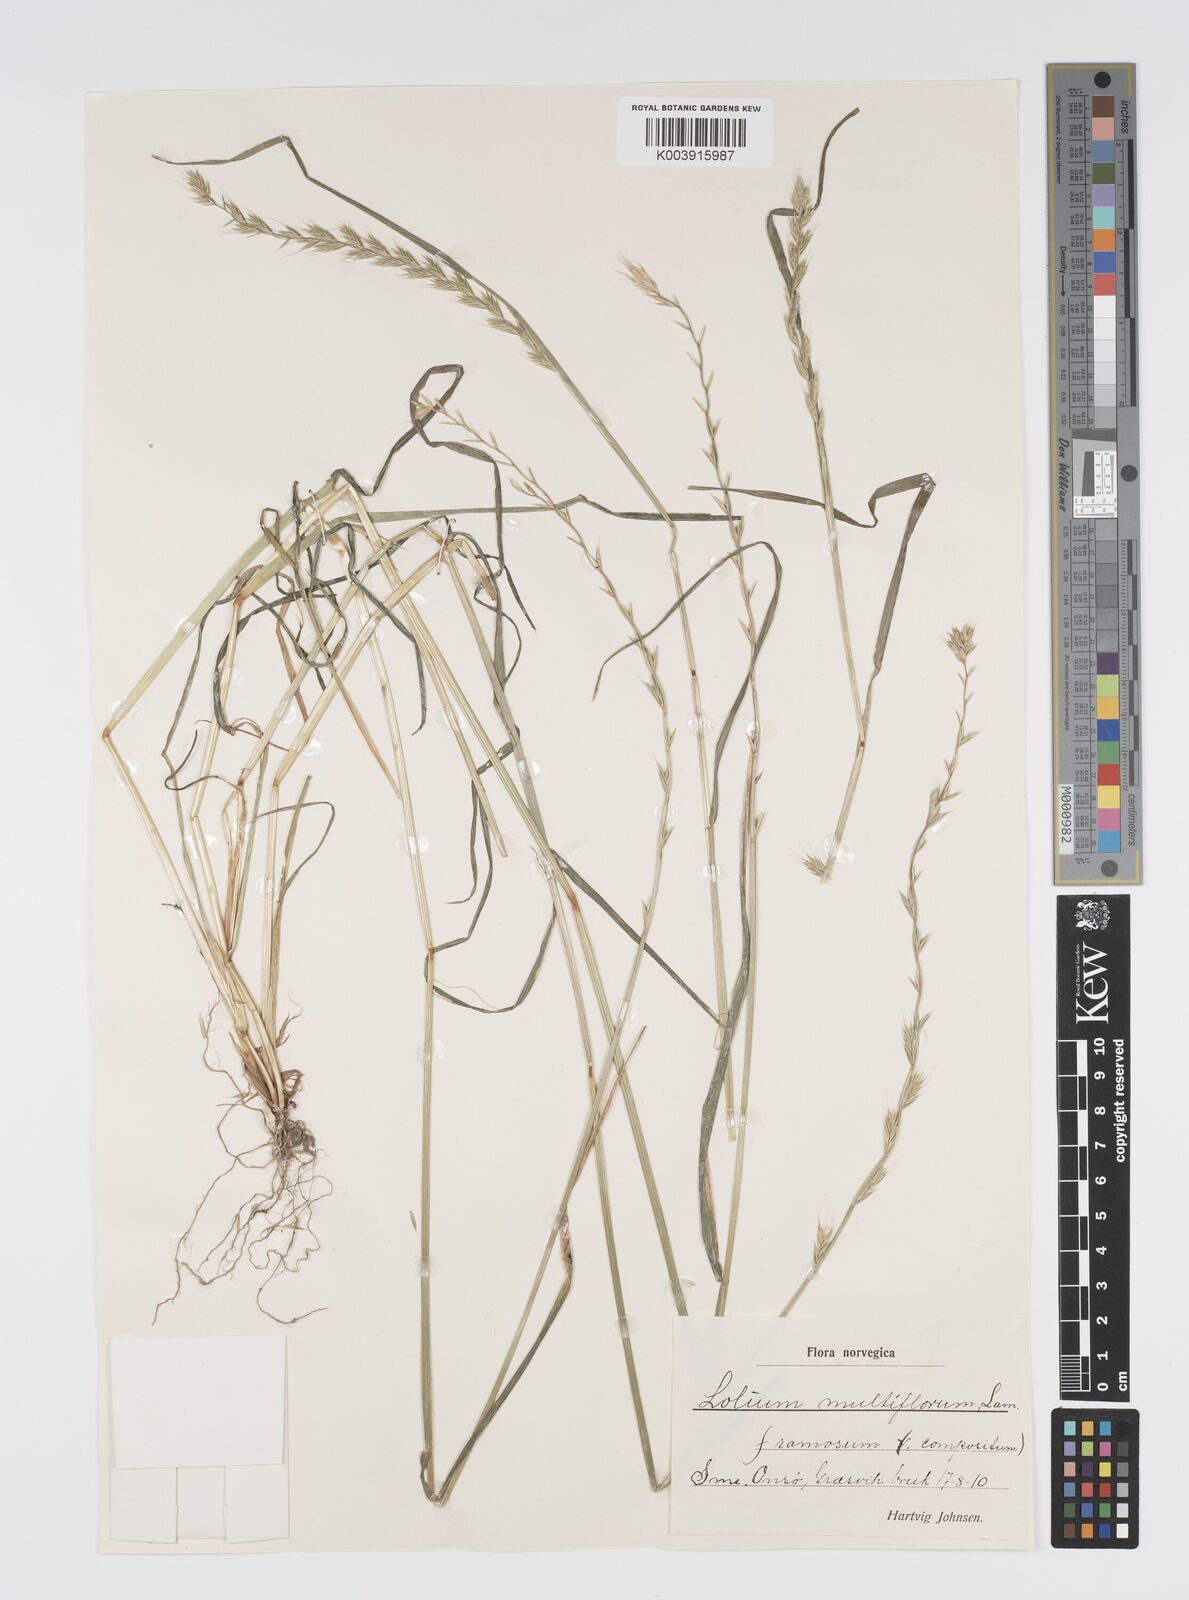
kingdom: Plantae
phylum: Tracheophyta
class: Liliopsida
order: Poales
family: Poaceae
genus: Lolium
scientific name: Lolium multiflorum
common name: Annual ryegrass
